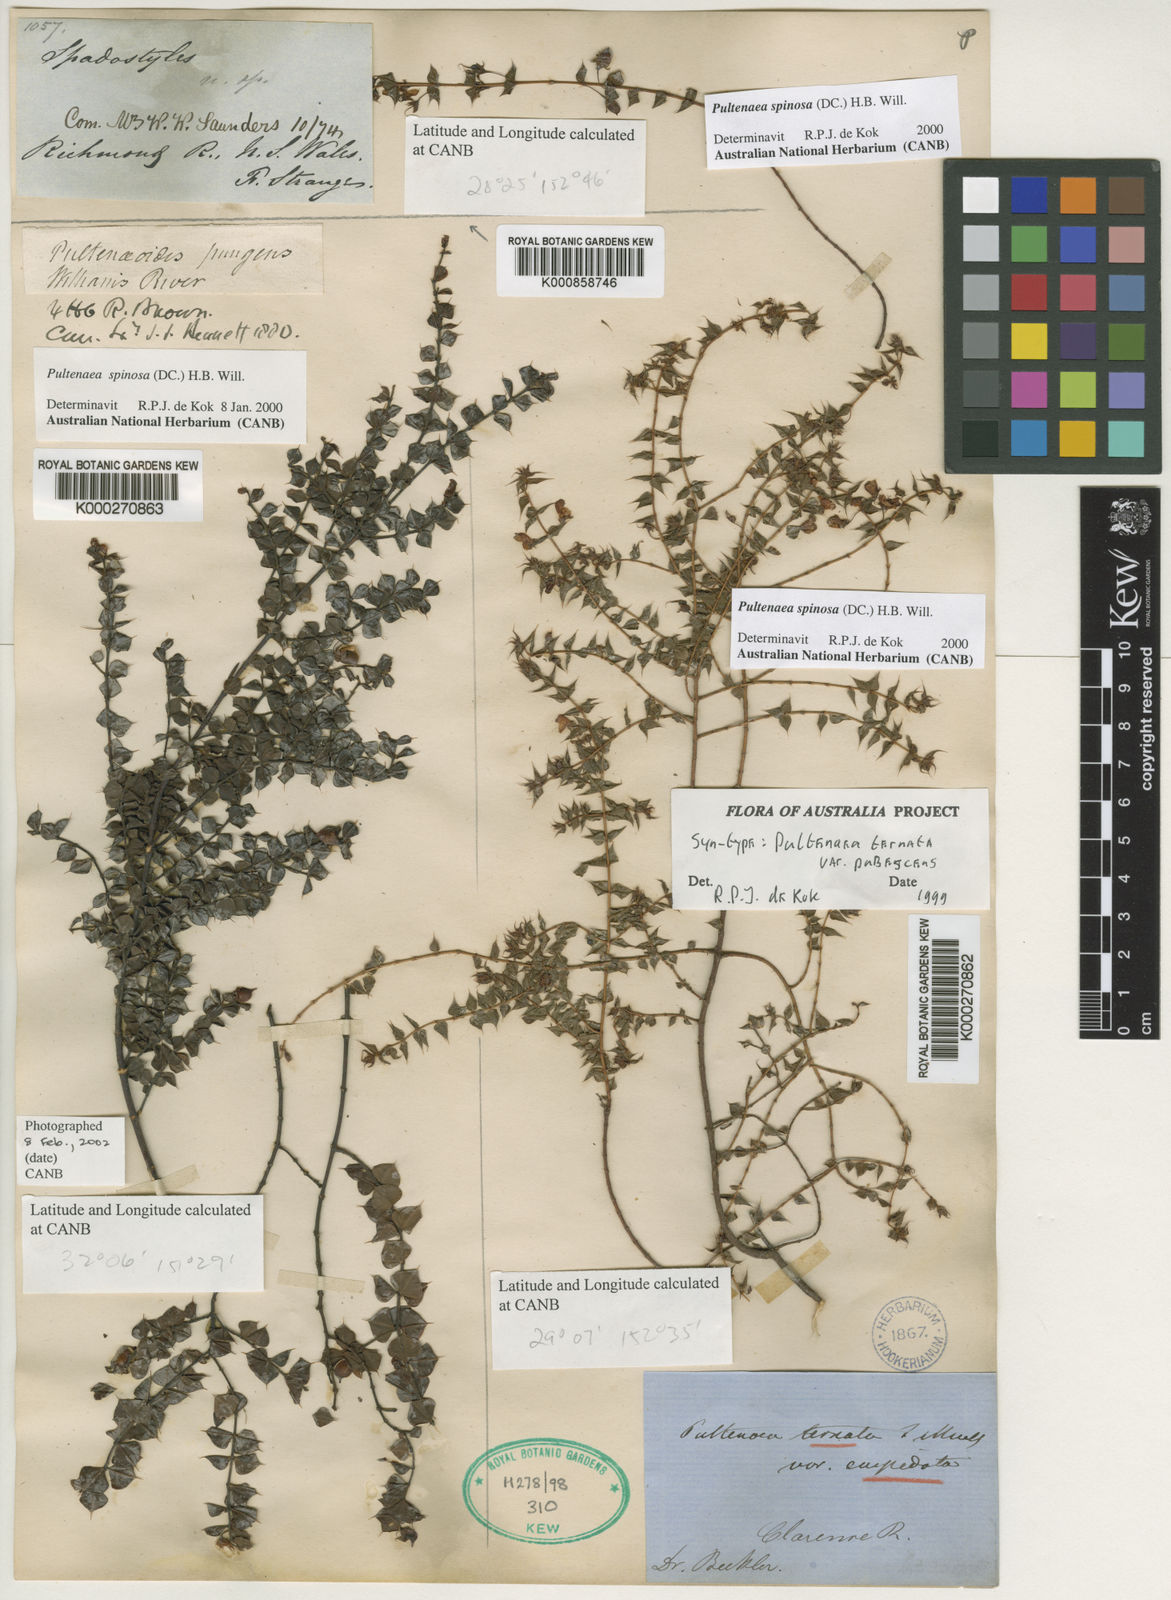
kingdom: Plantae
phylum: Tracheophyta
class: Magnoliopsida
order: Fabales
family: Fabaceae
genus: Pultenaea
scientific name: Pultenaea spinosa
